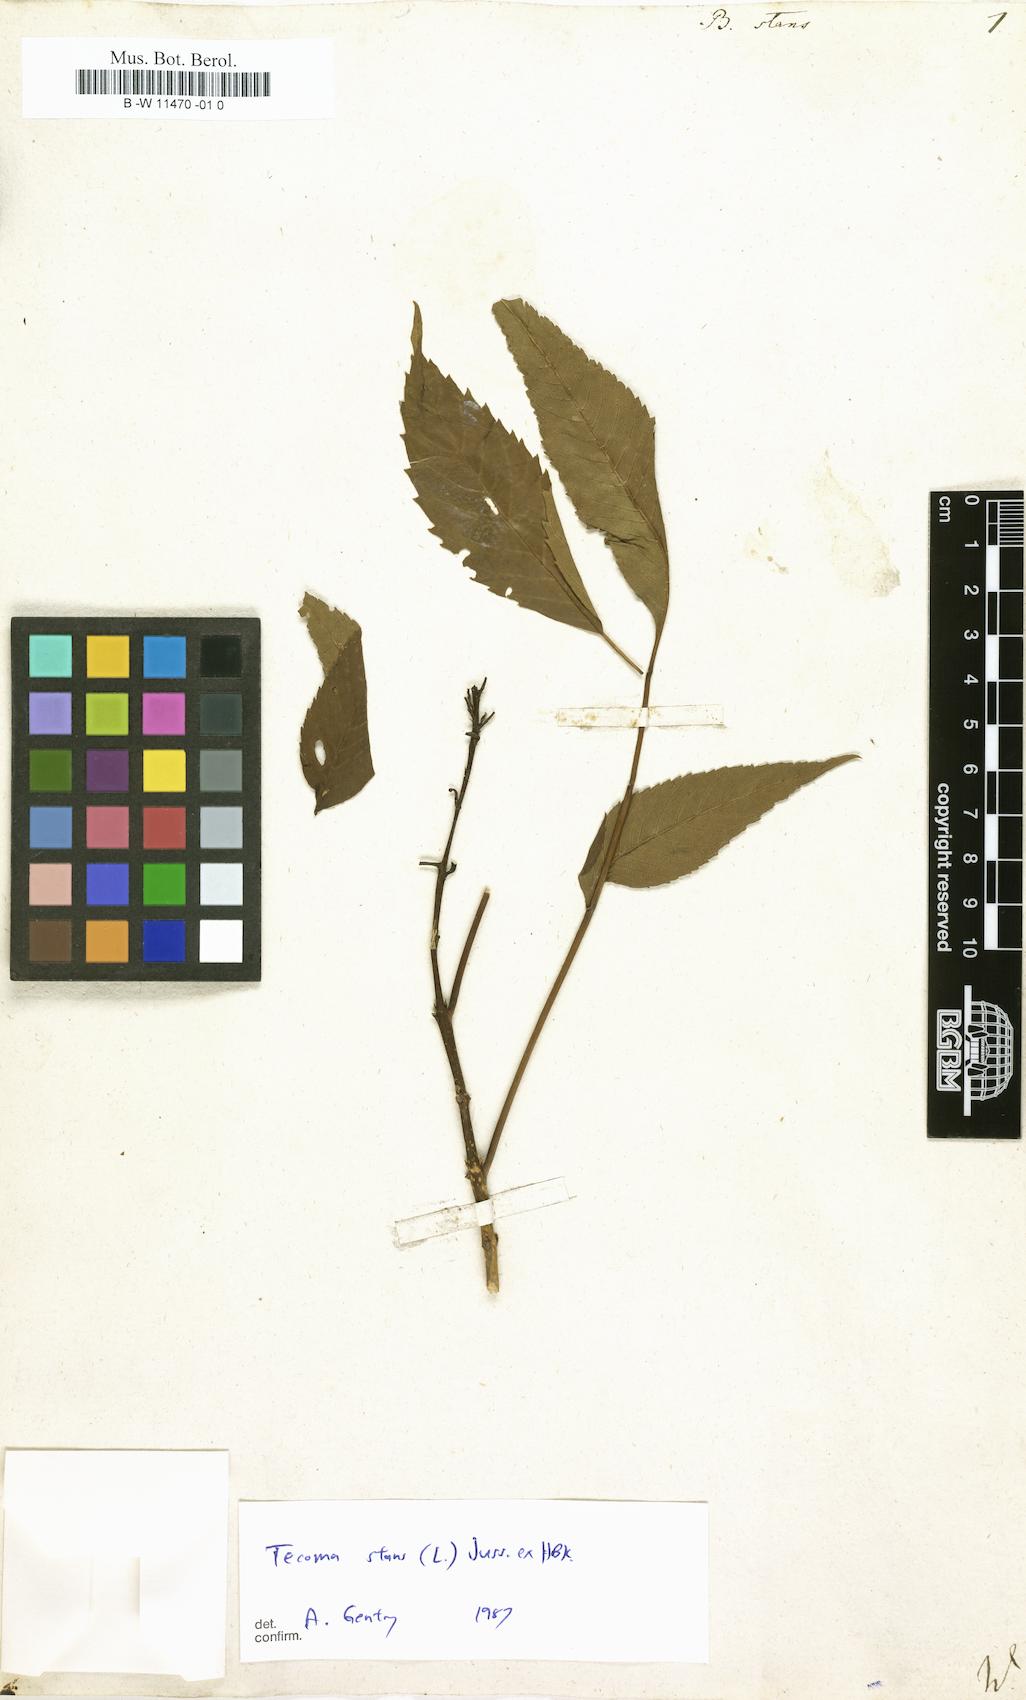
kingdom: Plantae
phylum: Tracheophyta
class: Magnoliopsida
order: Lamiales
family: Bignoniaceae
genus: Tecoma
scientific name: Tecoma stans
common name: Yellow trumpetbush
